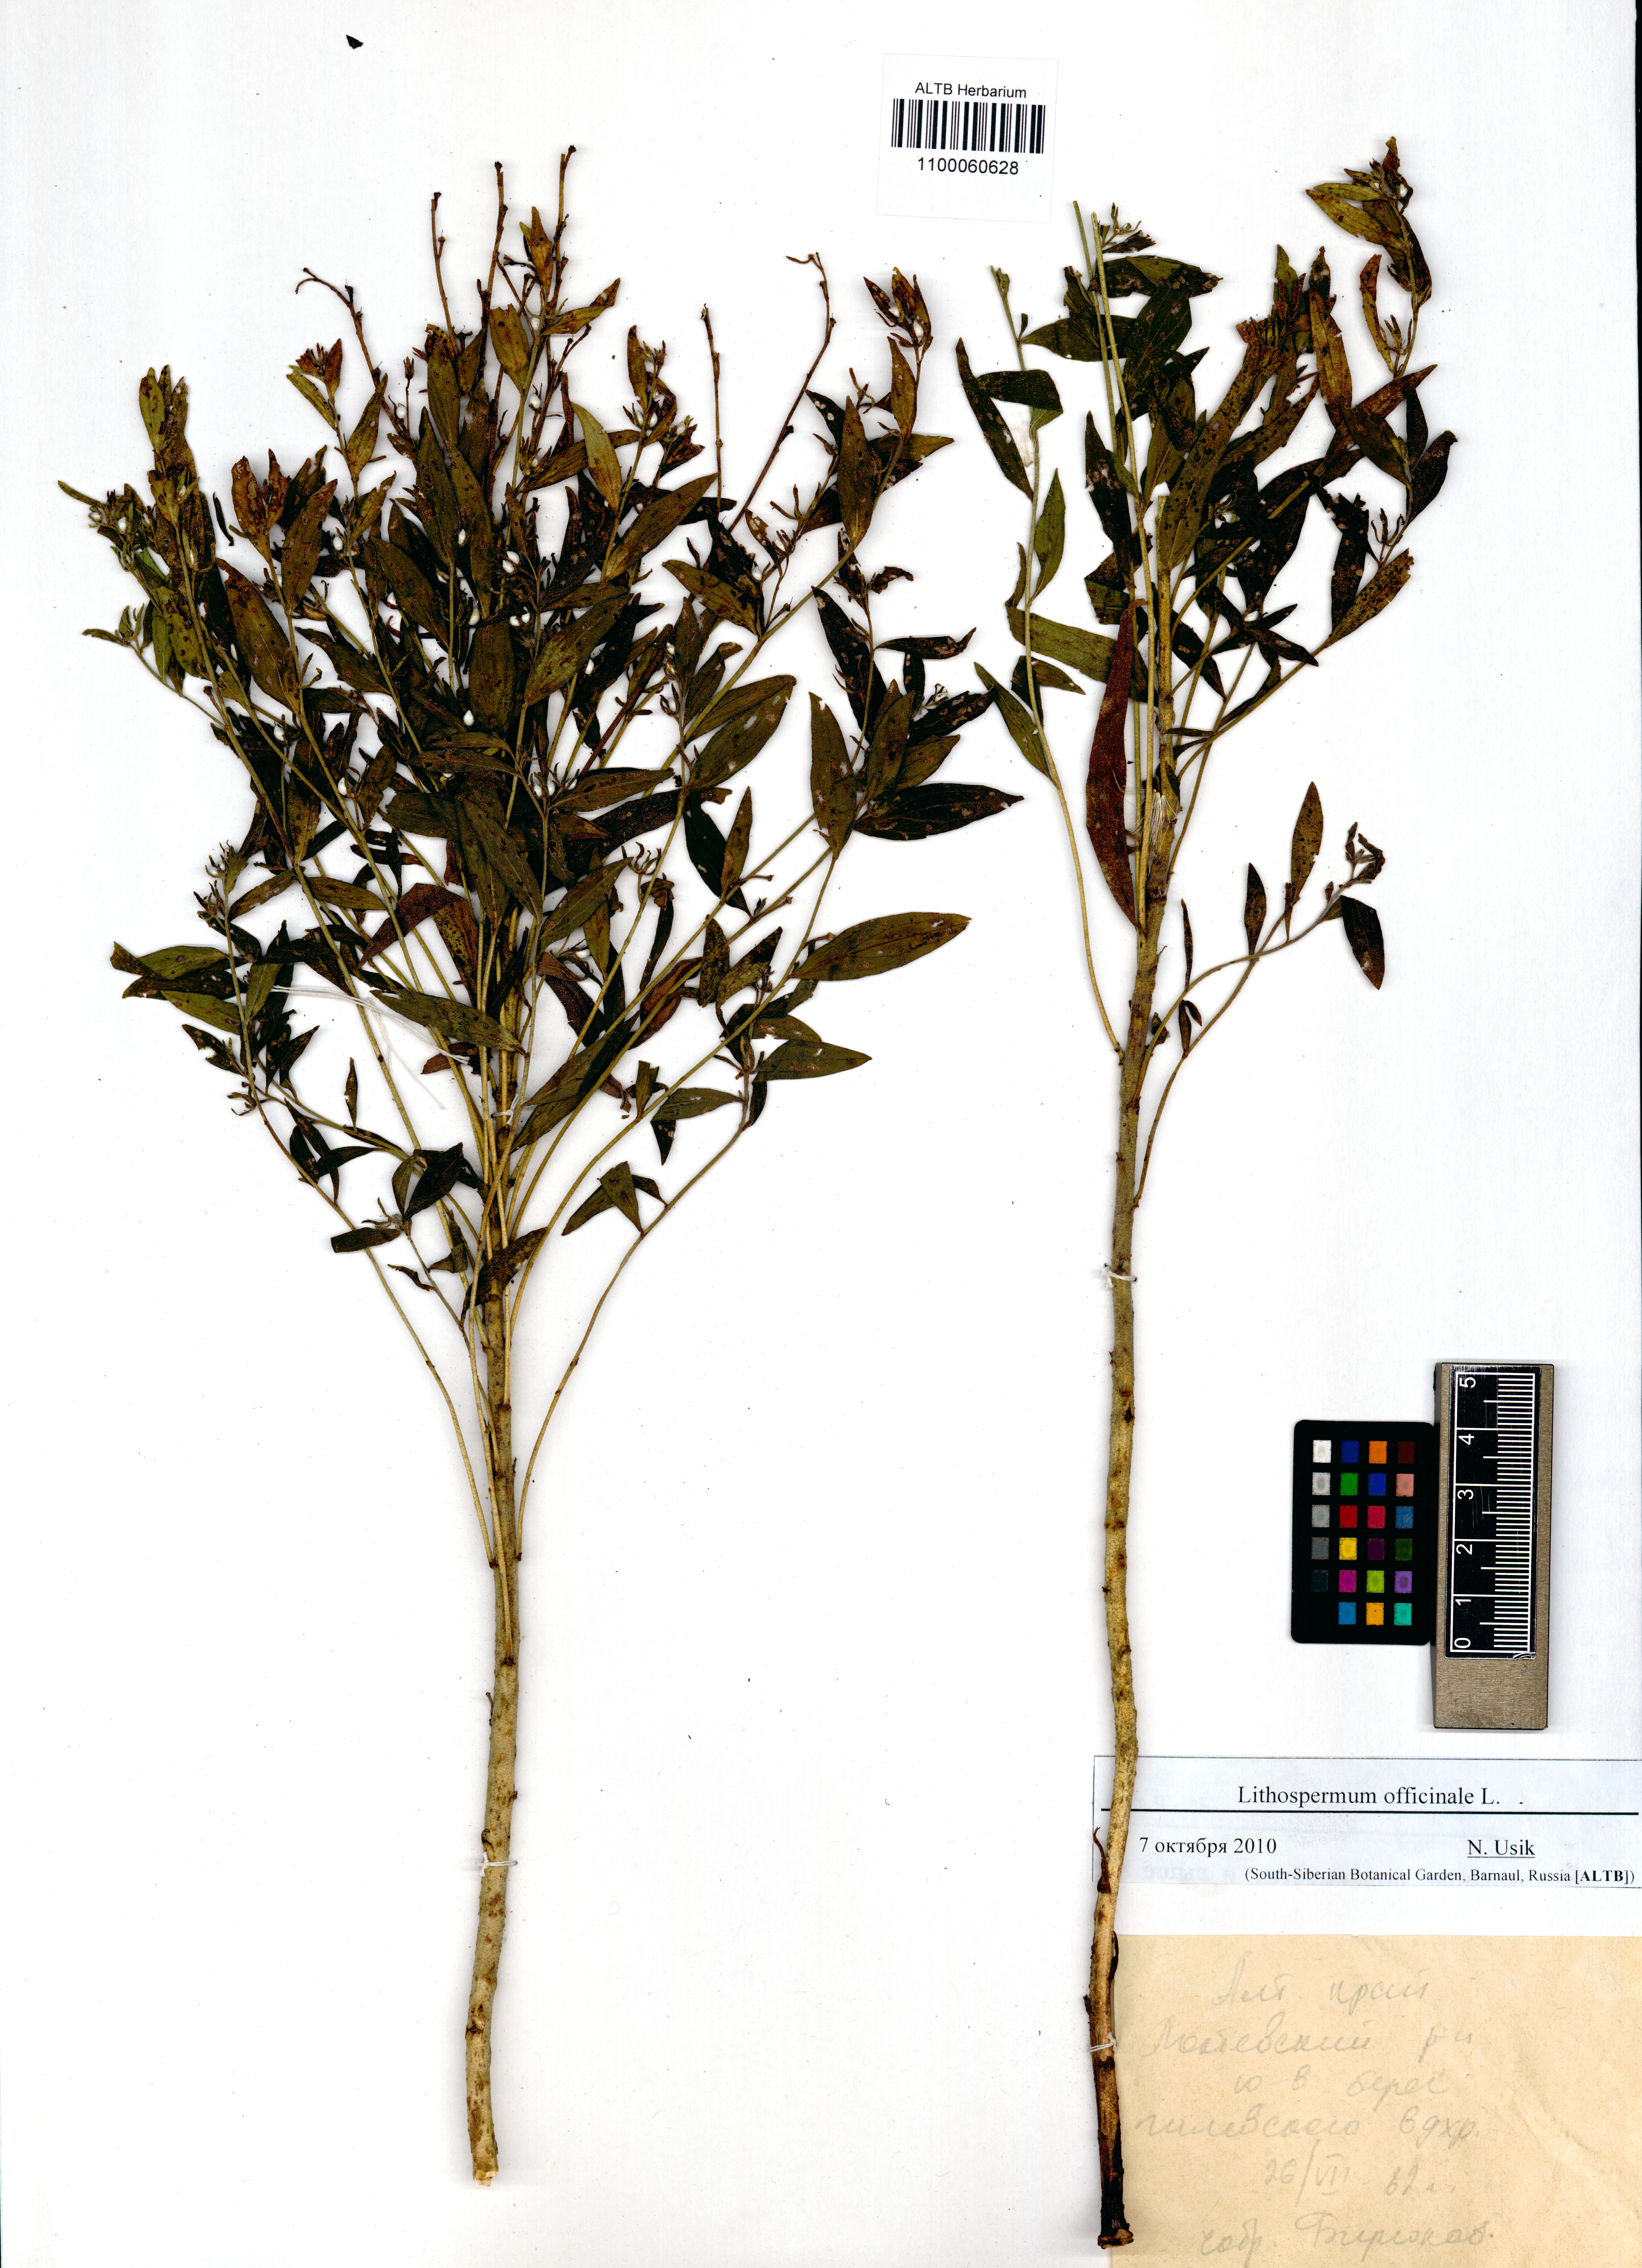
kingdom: Plantae
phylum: Tracheophyta
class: Magnoliopsida
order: Boraginales
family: Boraginaceae
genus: Lithospermum
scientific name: Lithospermum officinale
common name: Common gromwell
